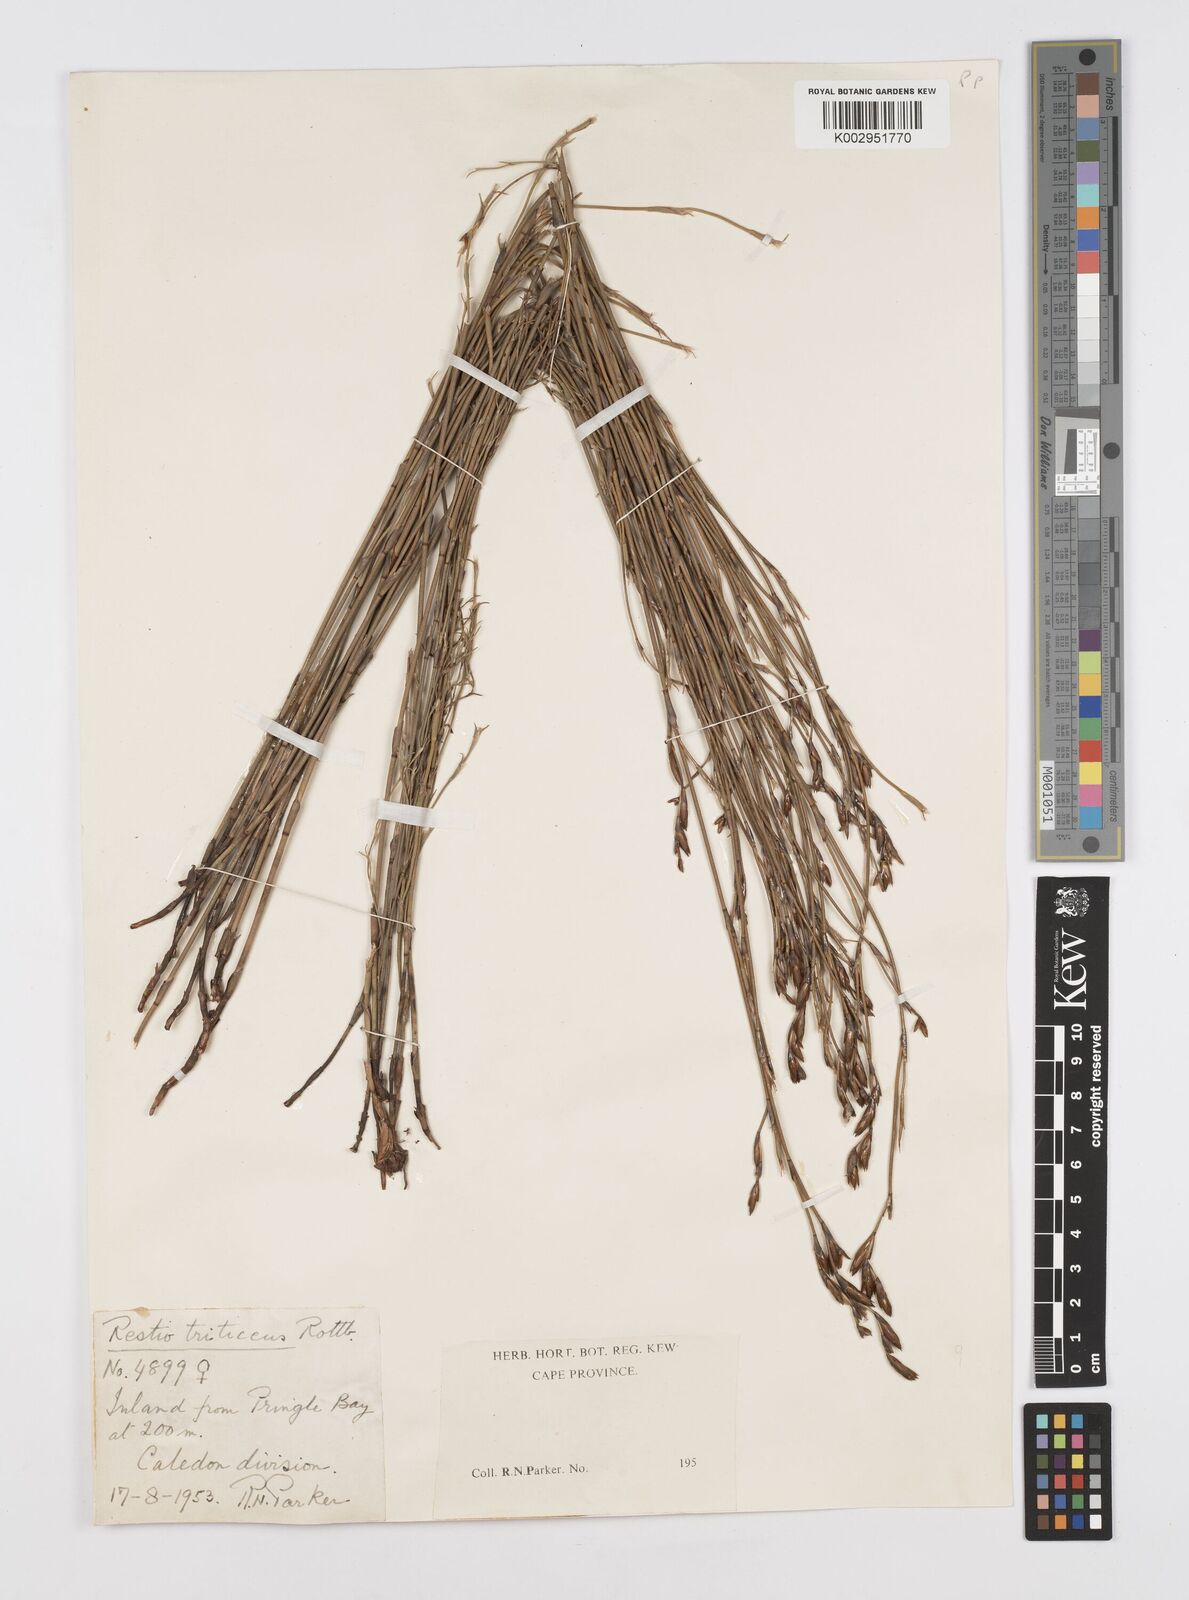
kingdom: Plantae
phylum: Tracheophyta
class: Liliopsida
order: Poales
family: Restionaceae
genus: Restio
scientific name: Restio triticeus
